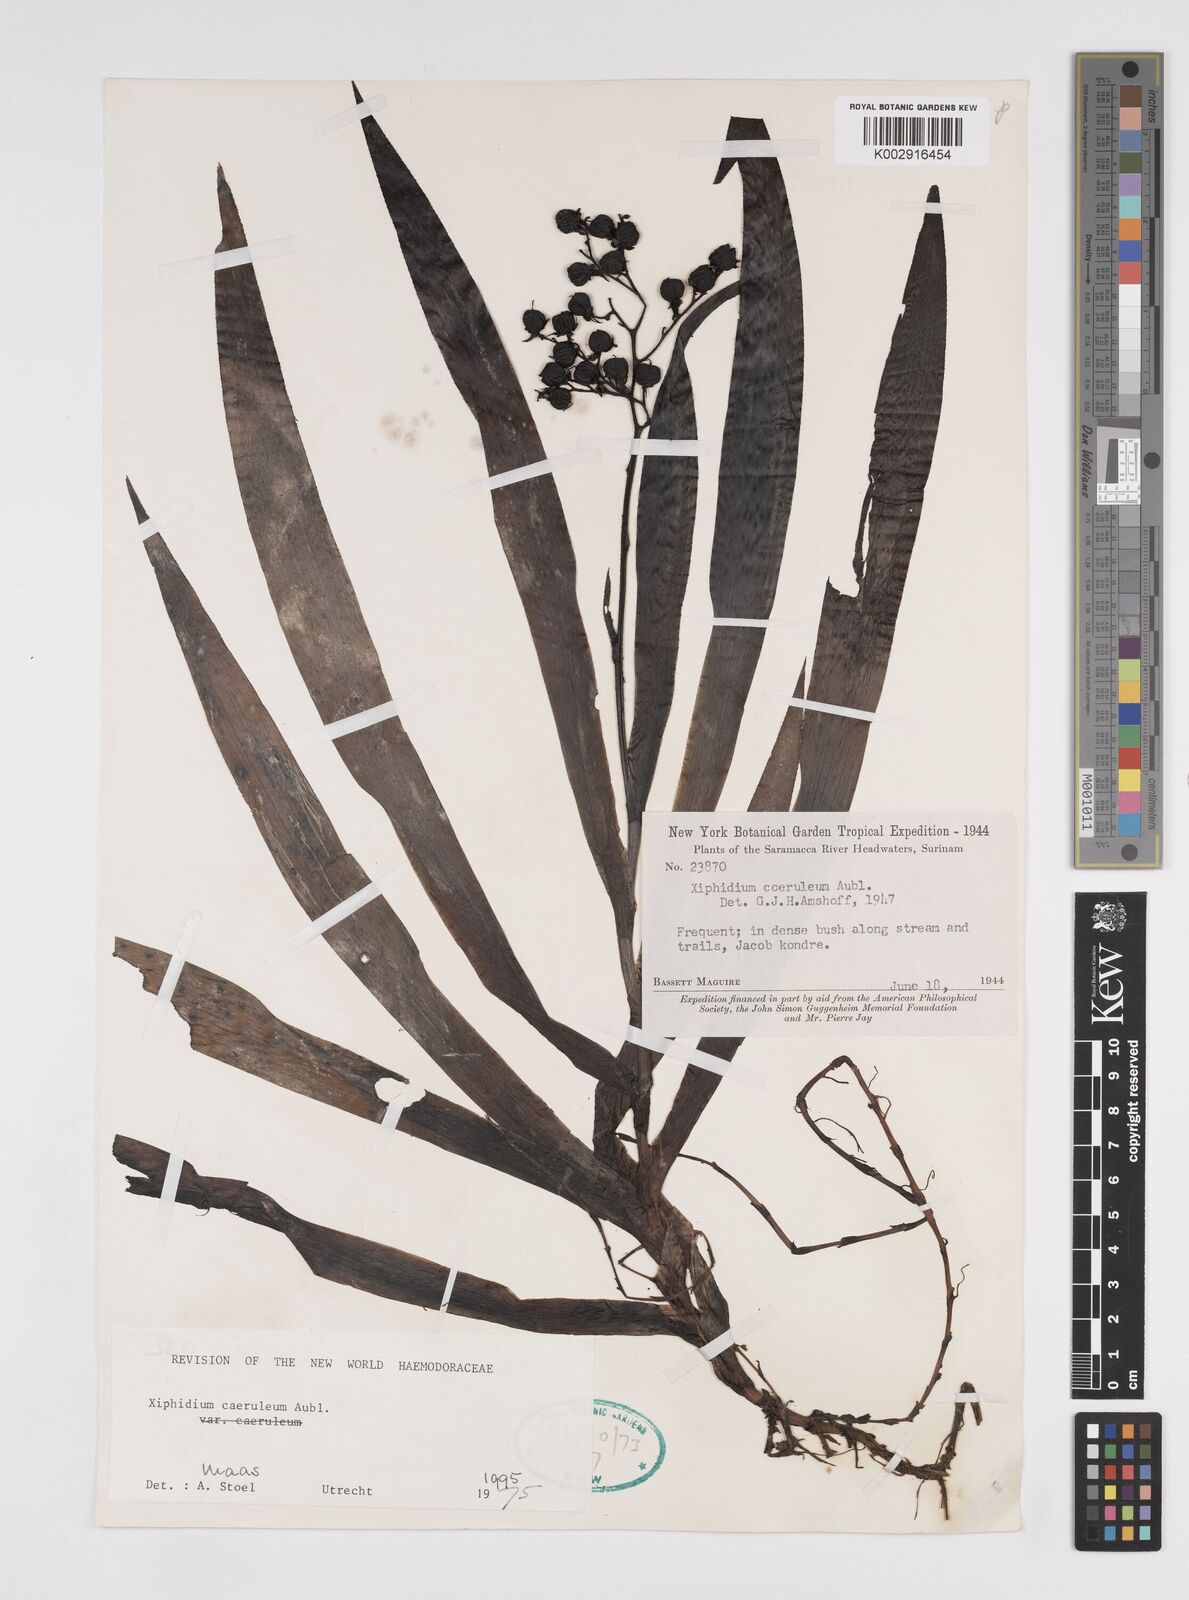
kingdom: Plantae
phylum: Tracheophyta
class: Liliopsida
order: Commelinales
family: Haemodoraceae
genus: Xiphidium
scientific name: Xiphidium caeruleum
